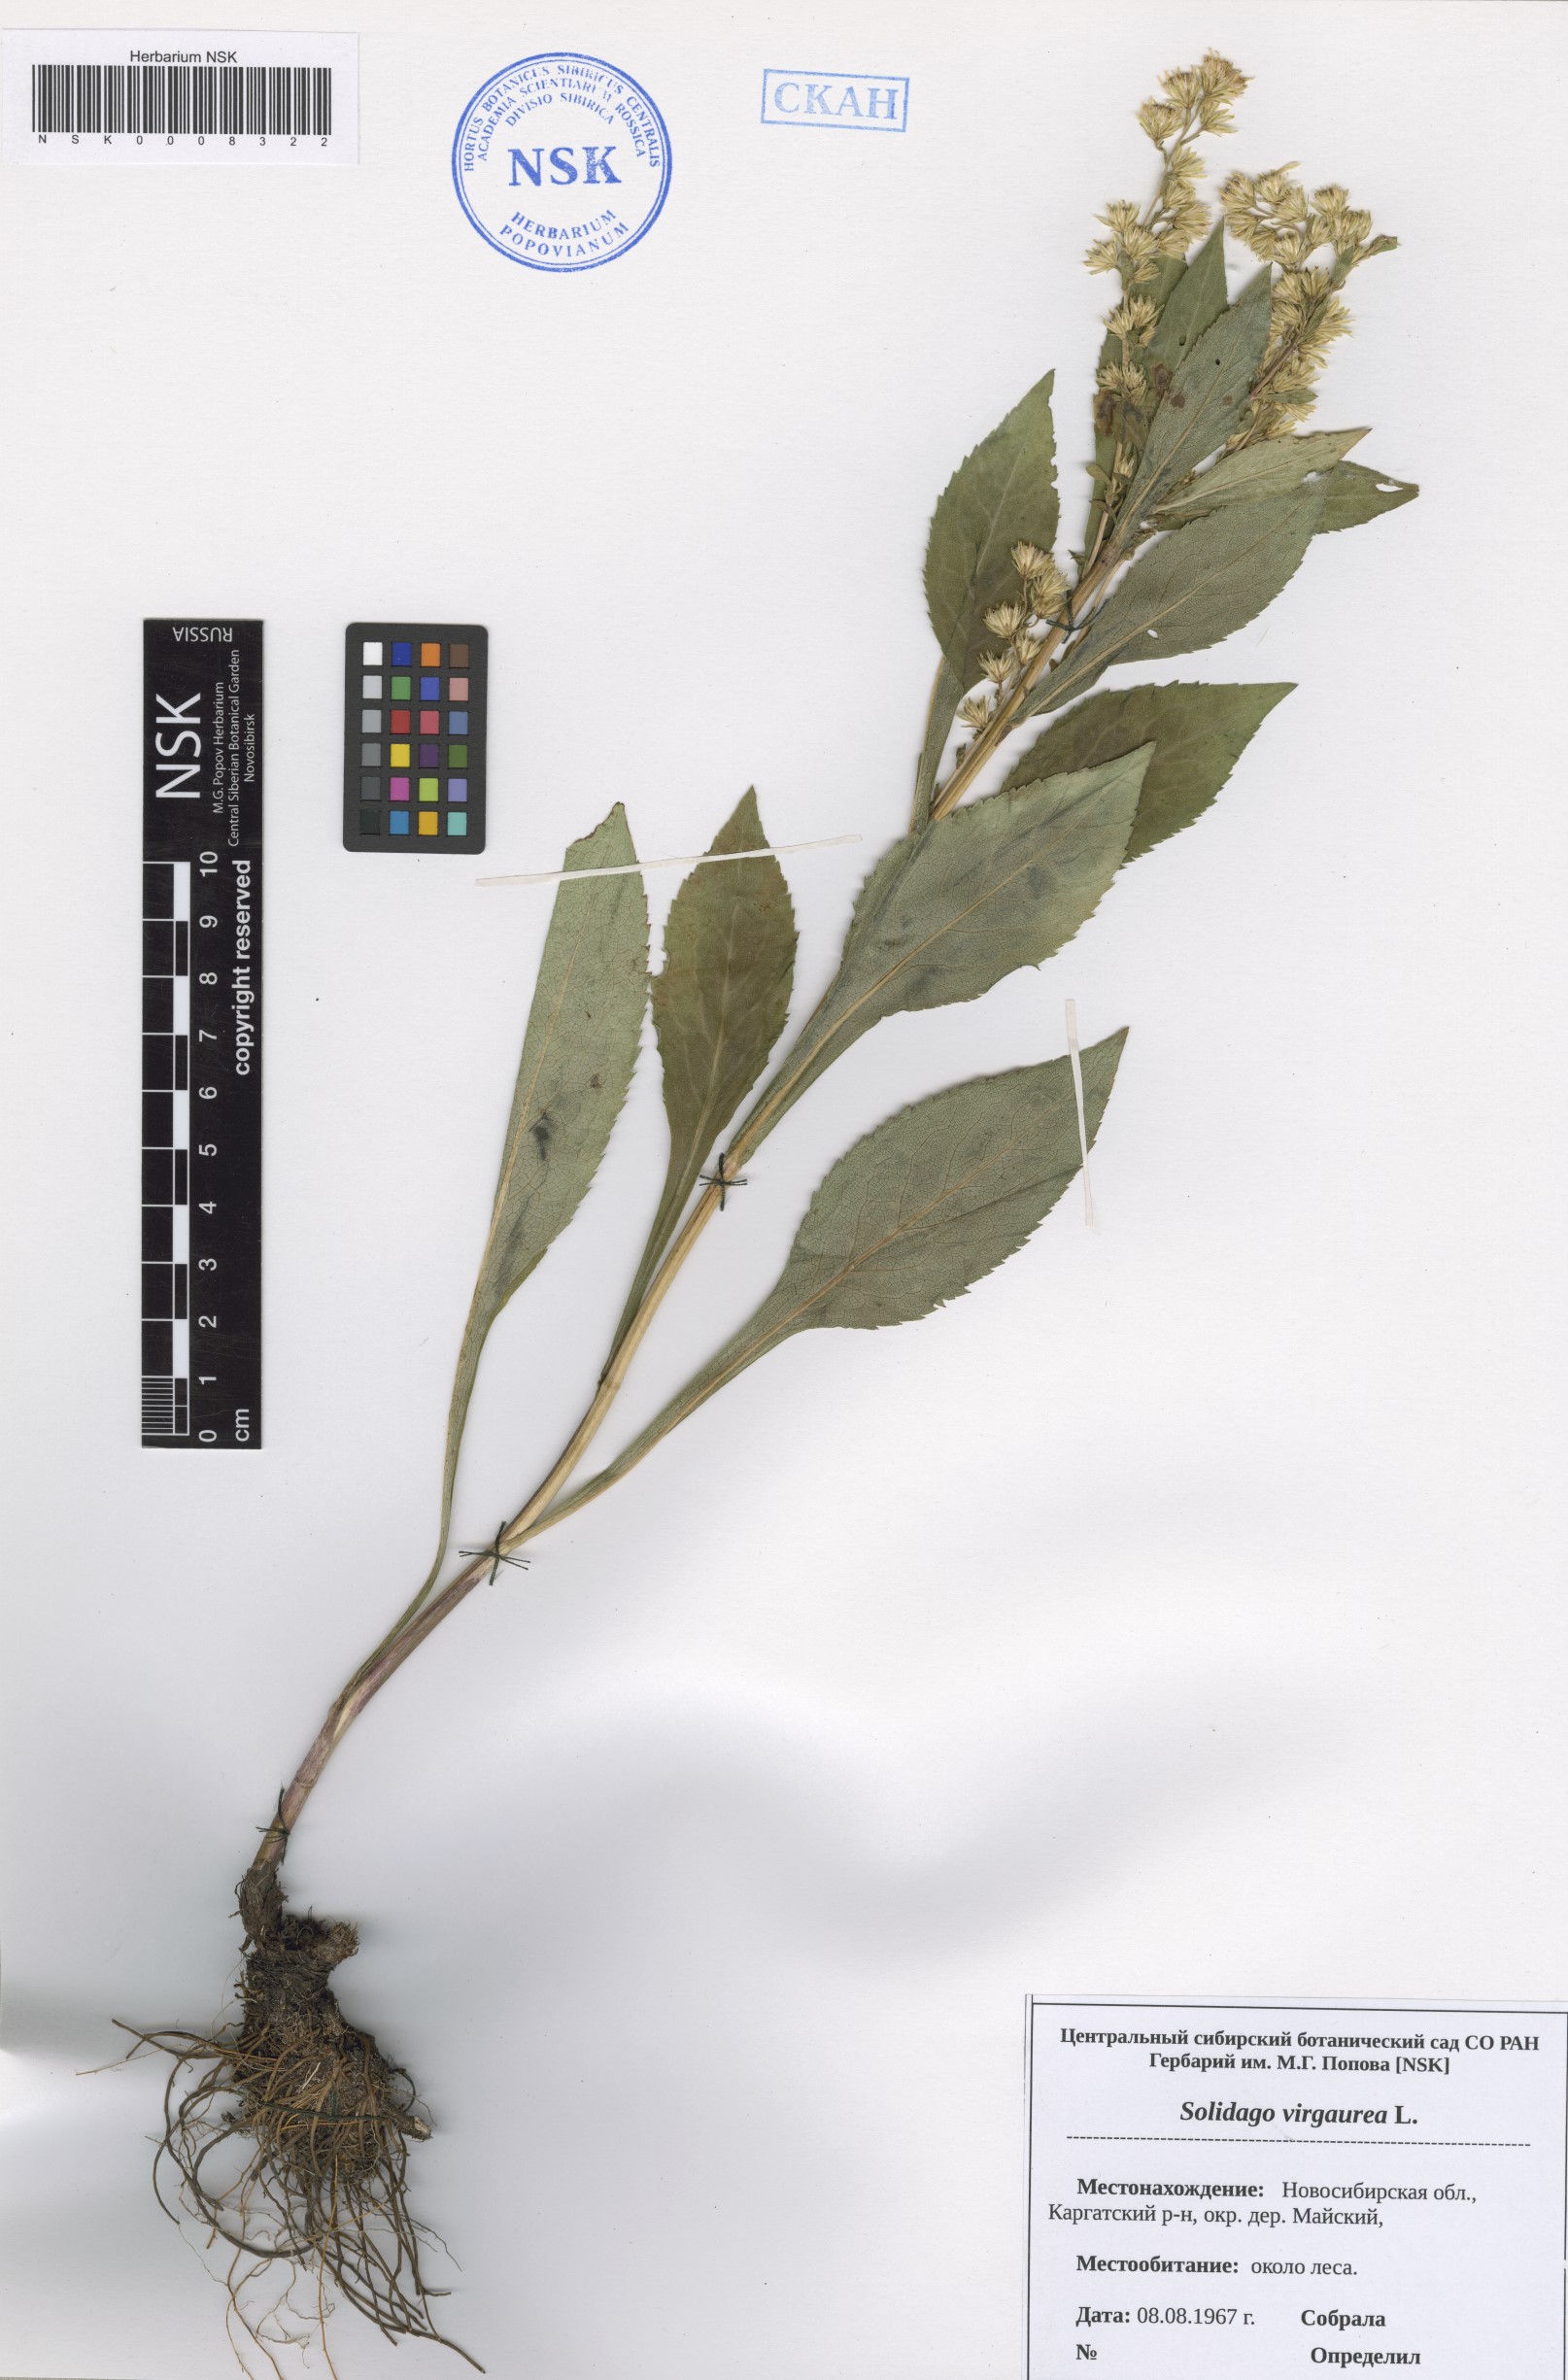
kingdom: Plantae
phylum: Tracheophyta
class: Magnoliopsida
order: Asterales
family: Asteraceae
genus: Solidago
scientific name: Solidago virgaurea
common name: Goldenrod
